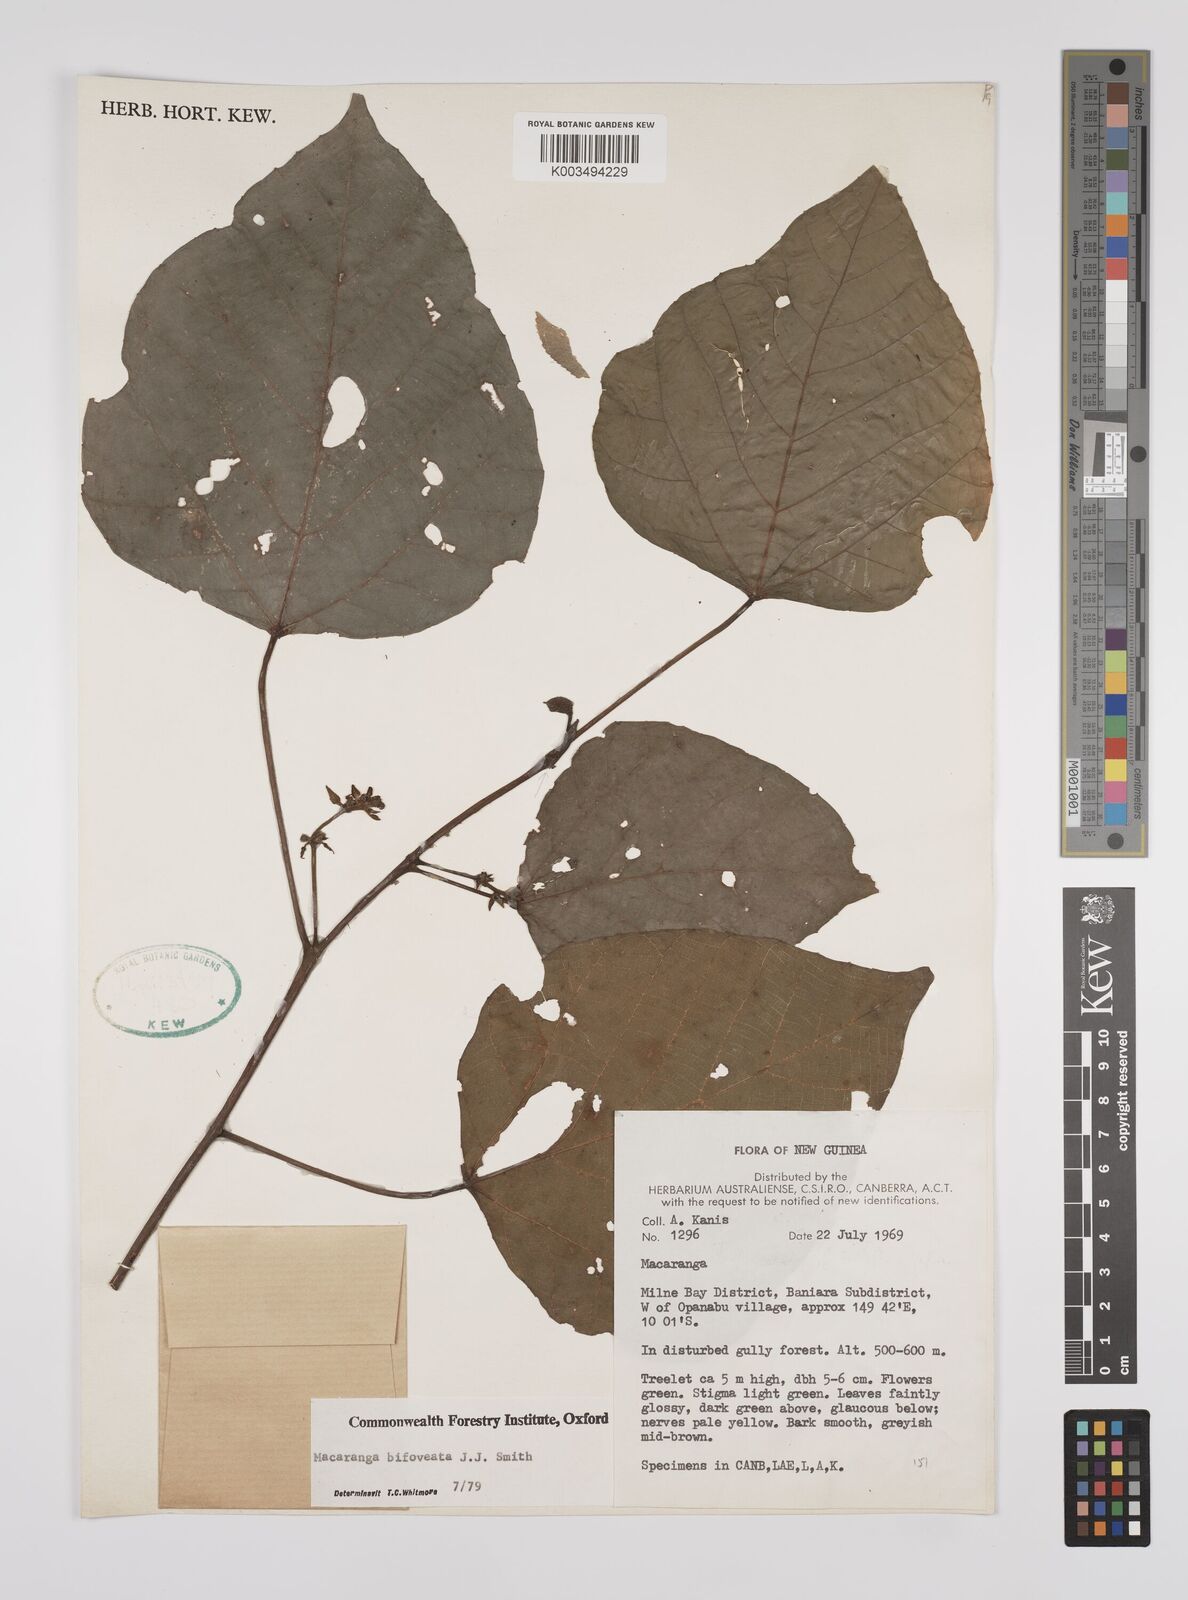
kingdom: Plantae
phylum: Tracheophyta
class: Magnoliopsida
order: Malpighiales
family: Euphorbiaceae
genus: Macaranga
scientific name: Macaranga bifoveata
